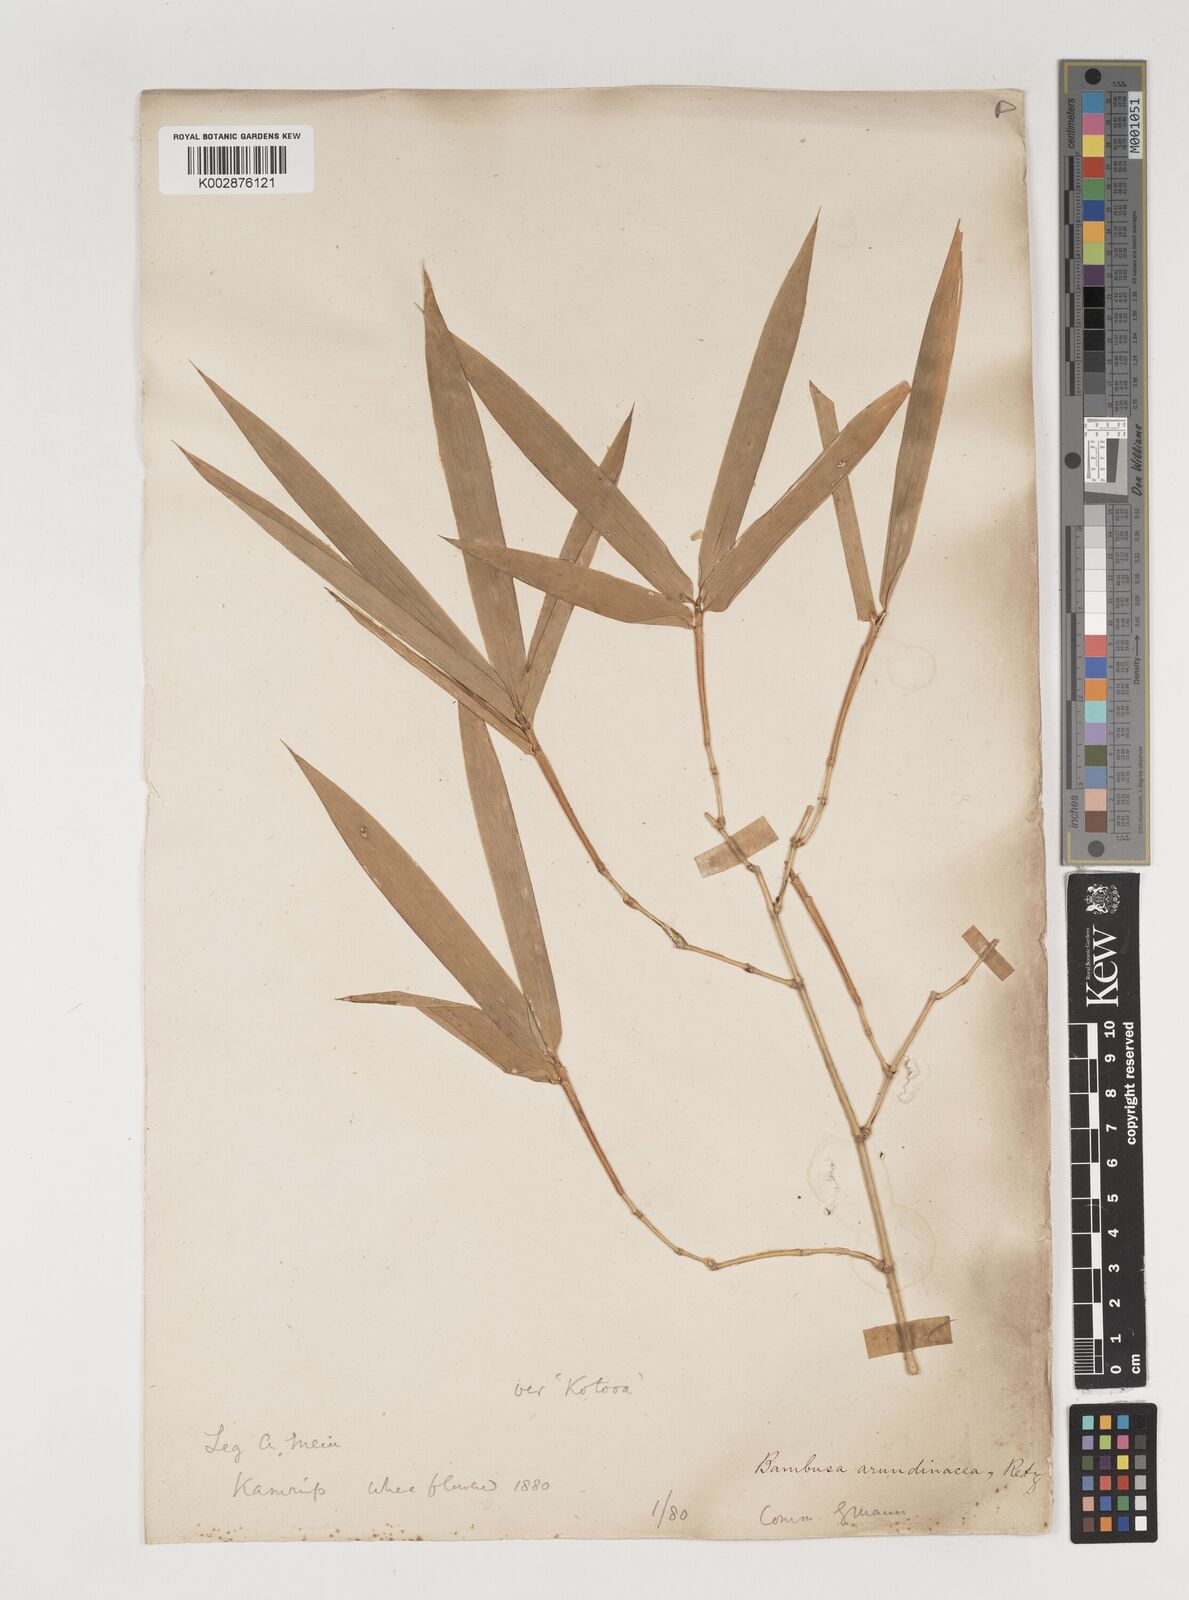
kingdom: Plantae
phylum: Tracheophyta
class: Liliopsida
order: Poales
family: Poaceae
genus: Bambusa
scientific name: Bambusa bambos
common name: Indian thorny bamboo
